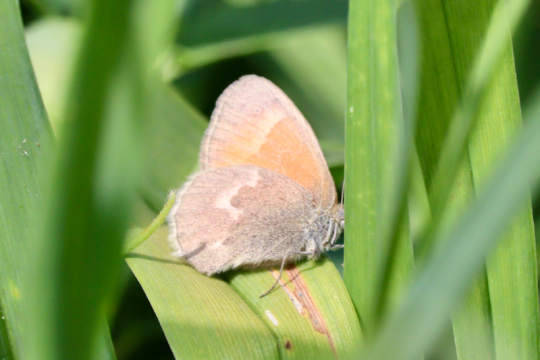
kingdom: Animalia
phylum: Arthropoda
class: Insecta
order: Lepidoptera
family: Nymphalidae
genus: Coenonympha
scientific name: Coenonympha california
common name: California Ringlet
